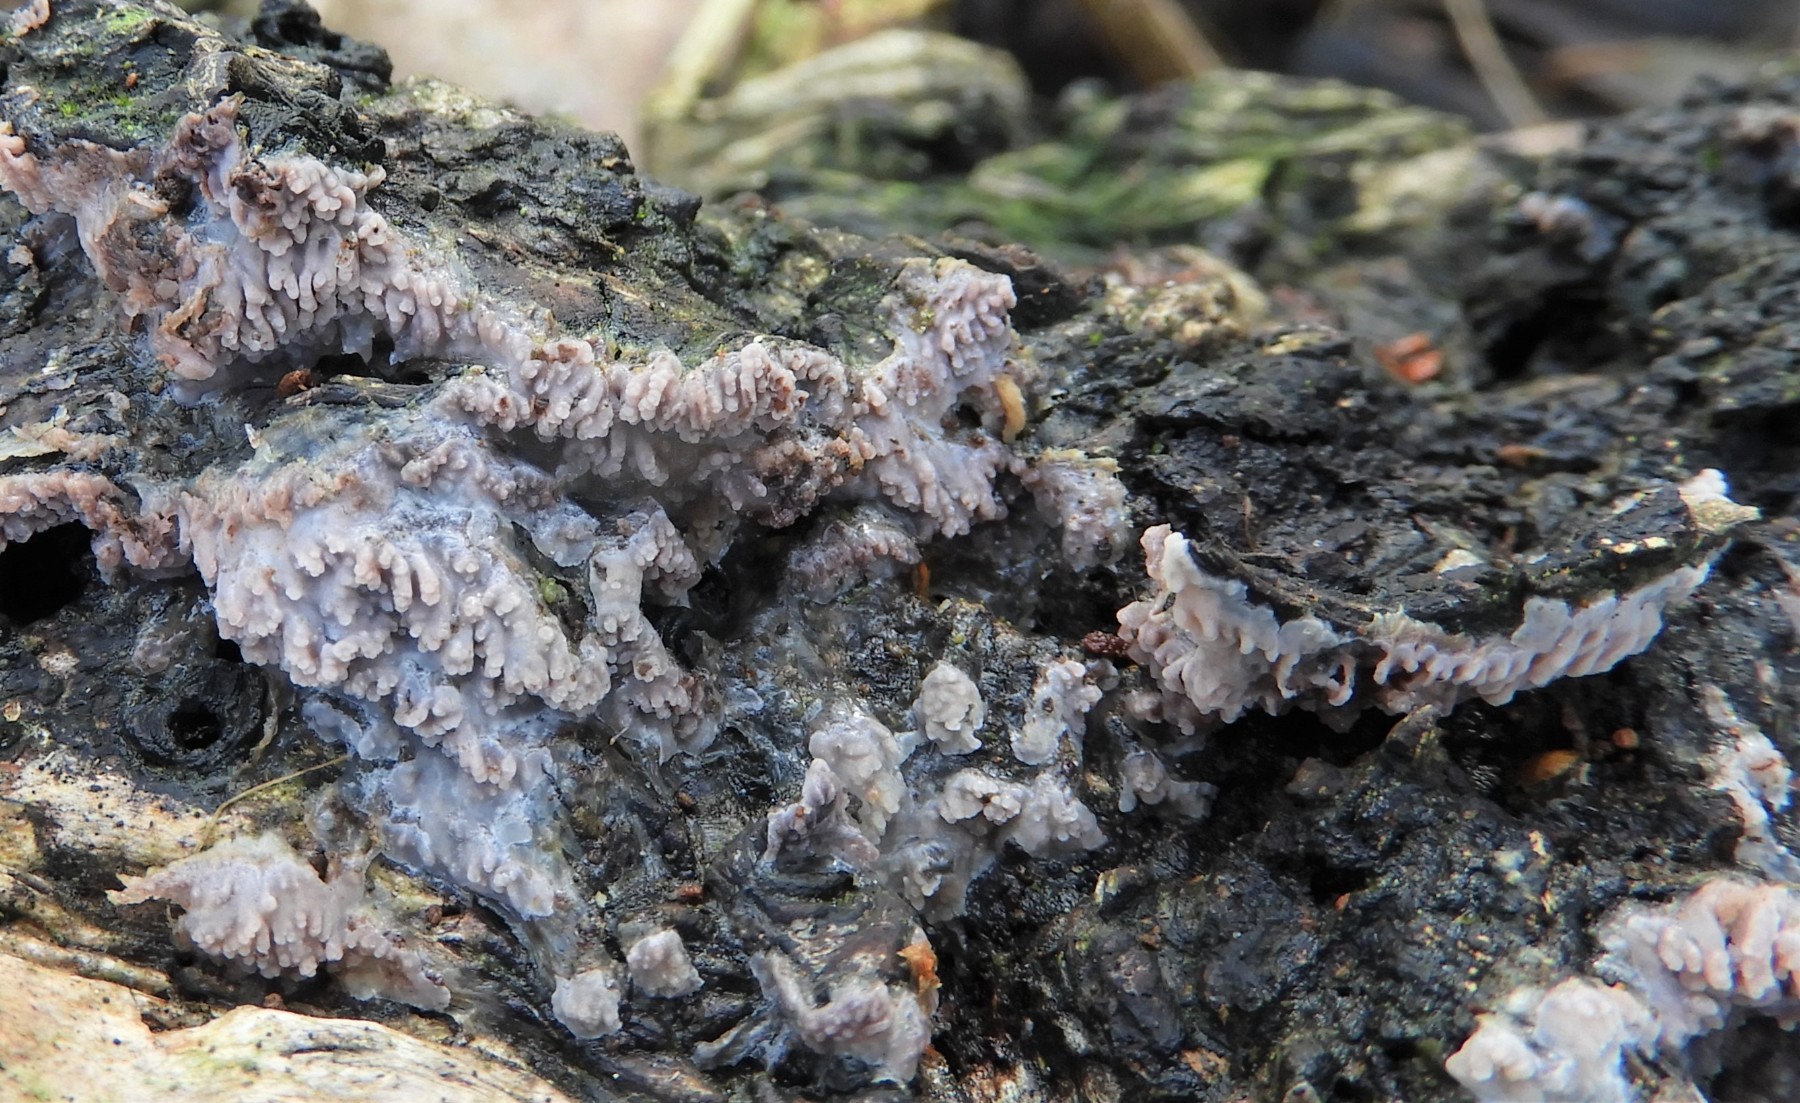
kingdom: Fungi
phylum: Basidiomycota
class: Agaricomycetes
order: Polyporales
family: Meruliaceae
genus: Phlebia
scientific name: Phlebia radiata
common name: stråle-åresvamp
